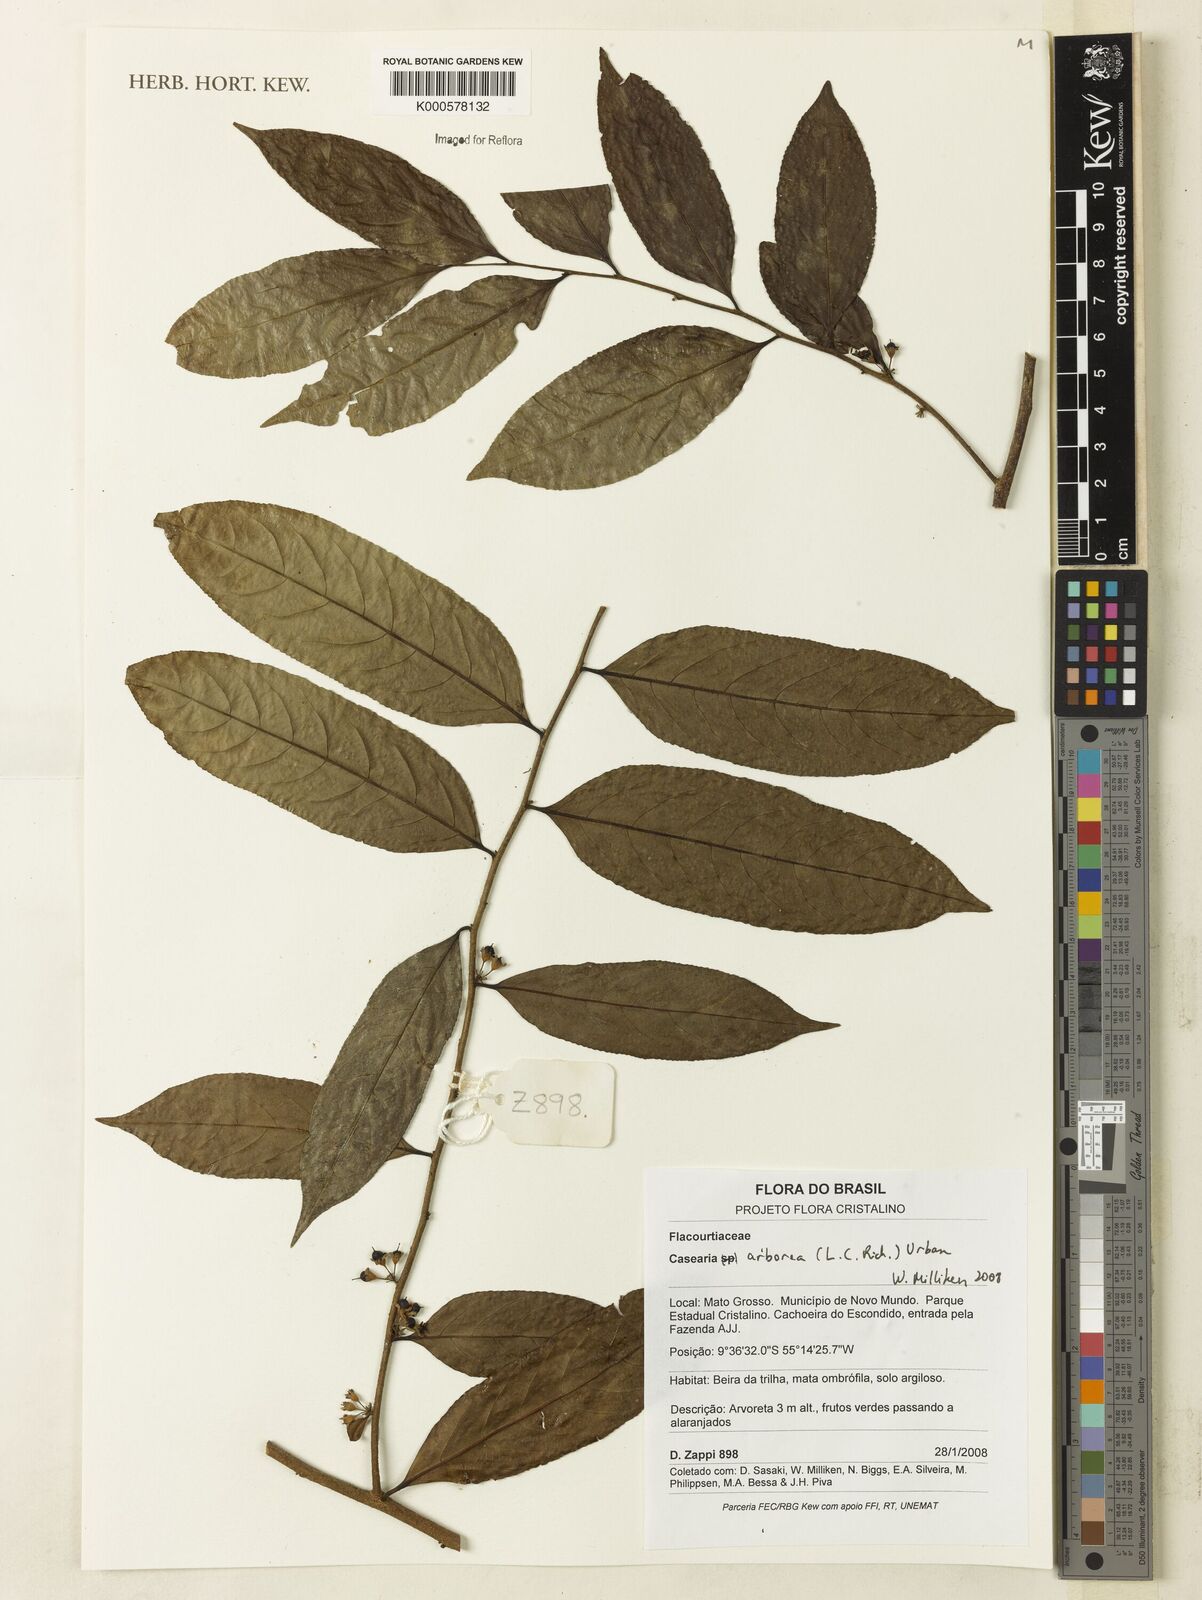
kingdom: Plantae
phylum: Tracheophyta
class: Magnoliopsida
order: Malpighiales
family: Salicaceae
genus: Casearia
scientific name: Casearia arborea
